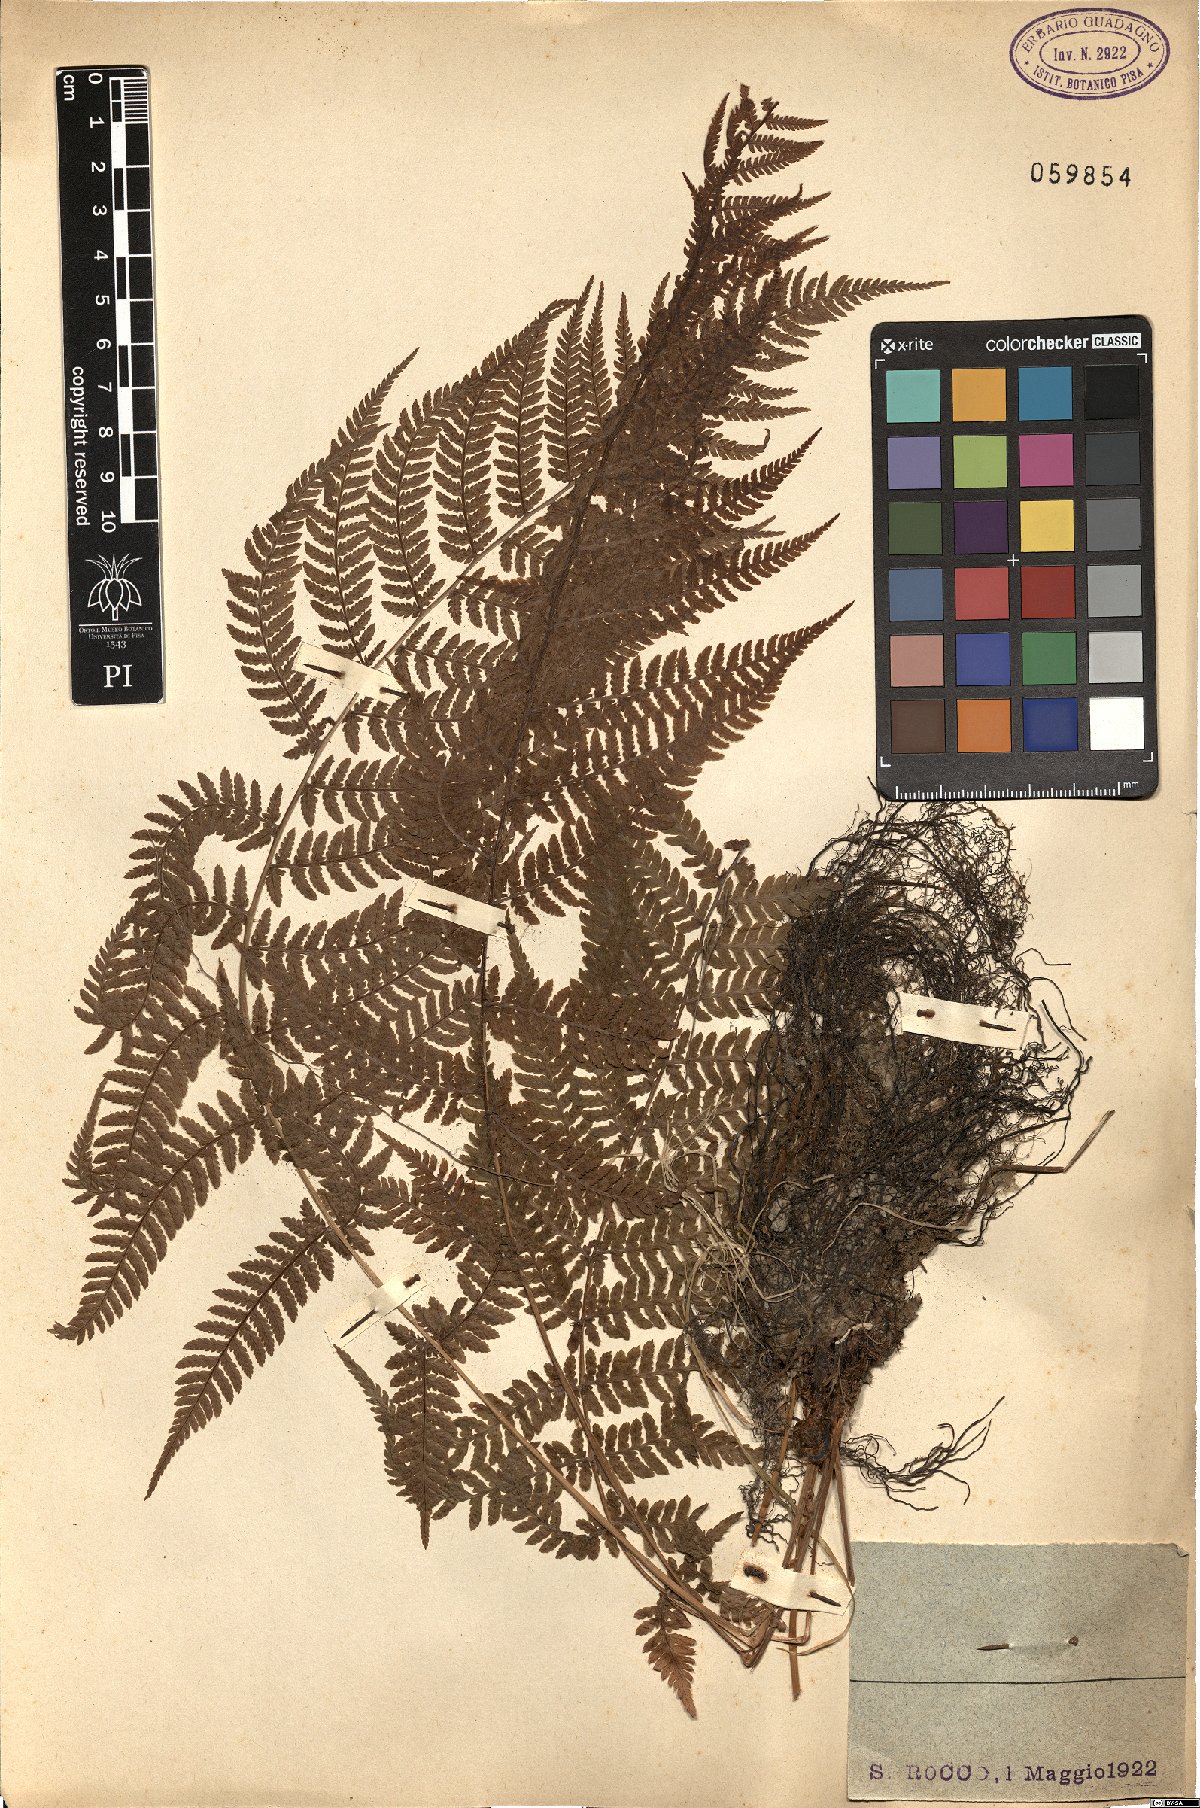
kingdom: Plantae
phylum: Tracheophyta
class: Polypodiopsida
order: Polypodiales
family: Athyriaceae
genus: Athyrium
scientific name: Athyrium filix-femina
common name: Lady fern
